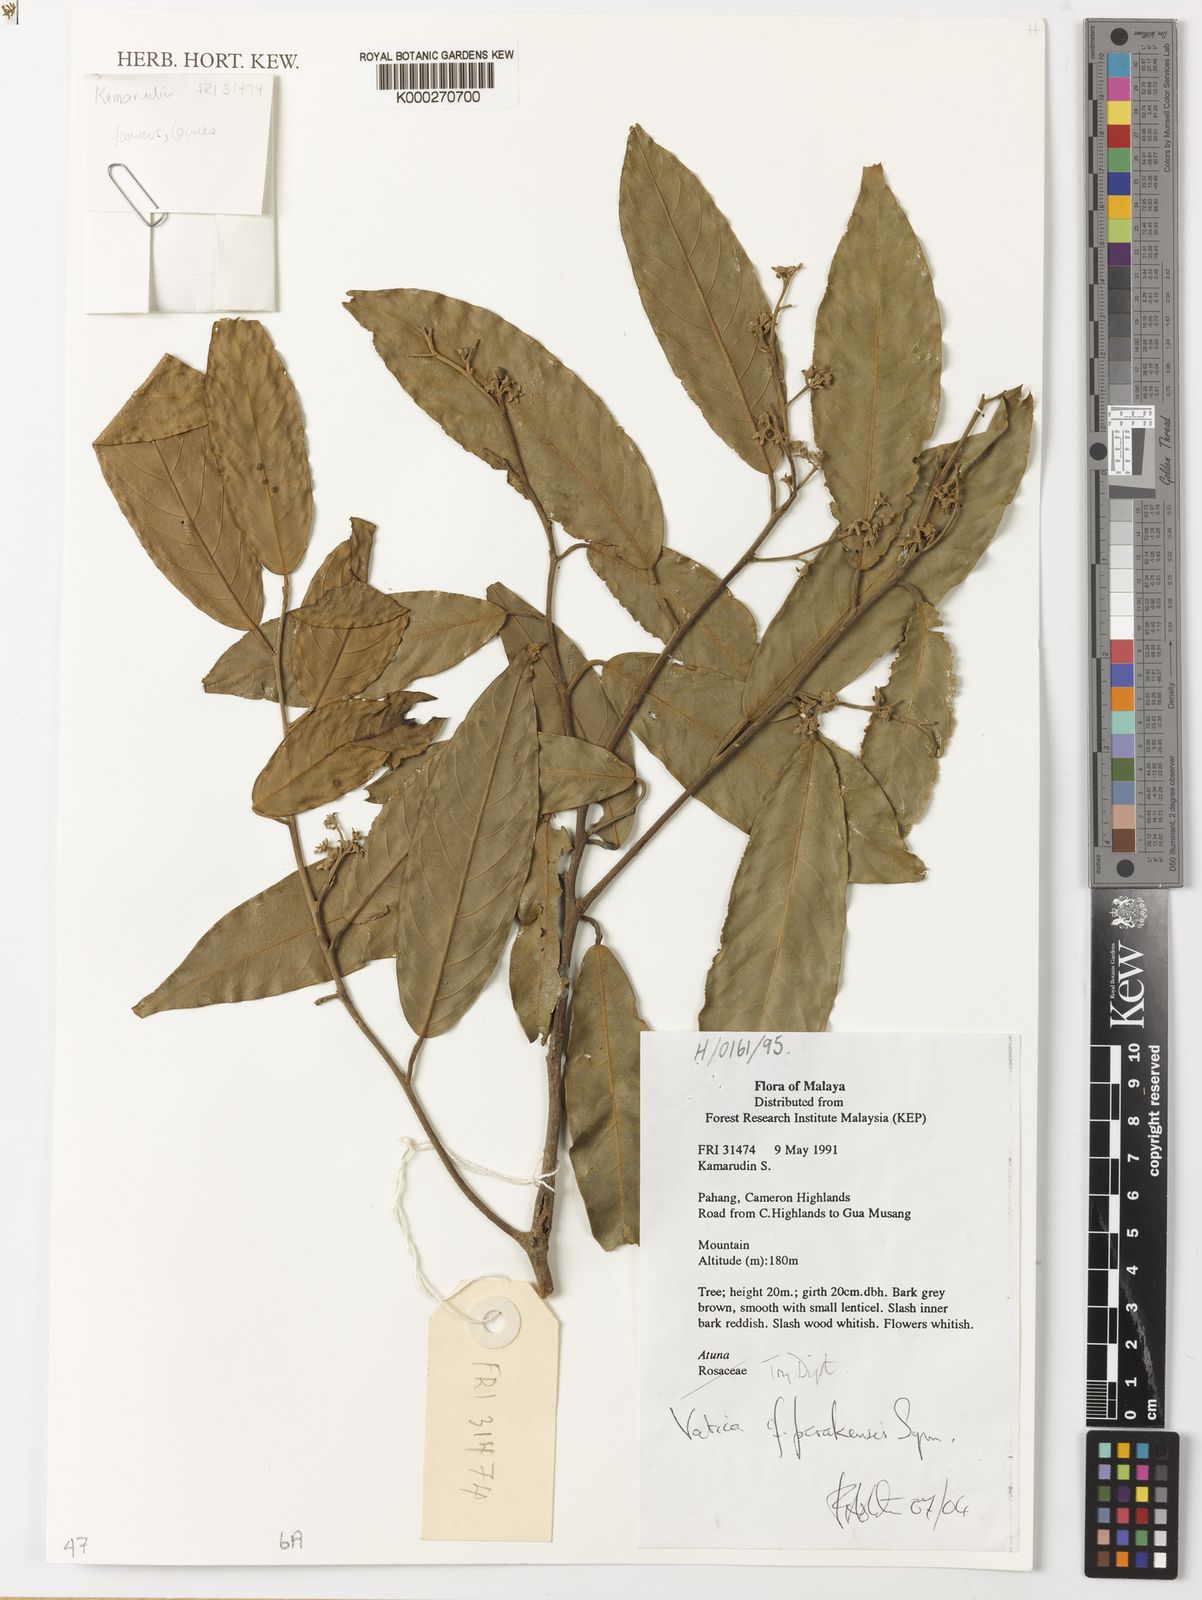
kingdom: Plantae
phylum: Tracheophyta
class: Magnoliopsida
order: Malvales
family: Dipterocarpaceae
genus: Vatica
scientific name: Vatica perakensis
